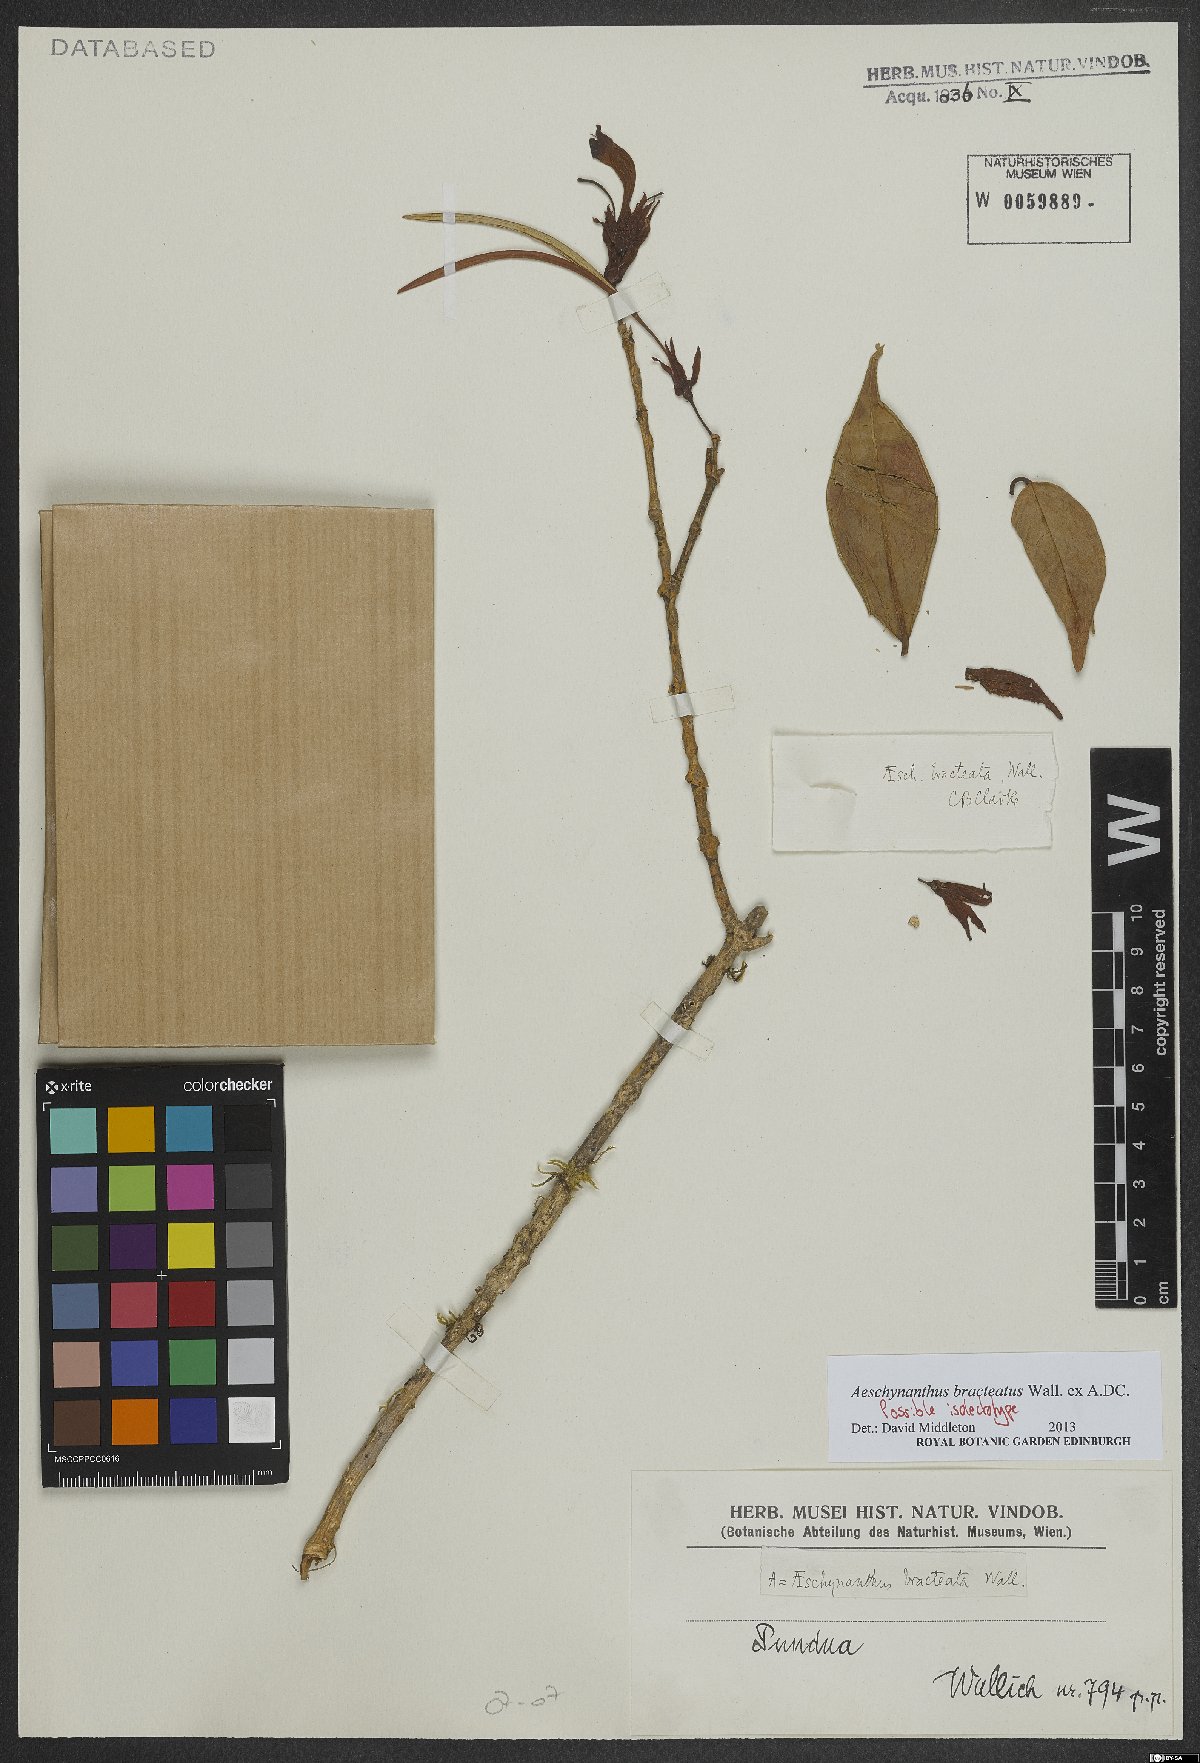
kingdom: Plantae
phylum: Tracheophyta
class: Magnoliopsida
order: Lamiales
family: Gesneriaceae
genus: Aeschynanthus
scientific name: Aeschynanthus bracteatus
